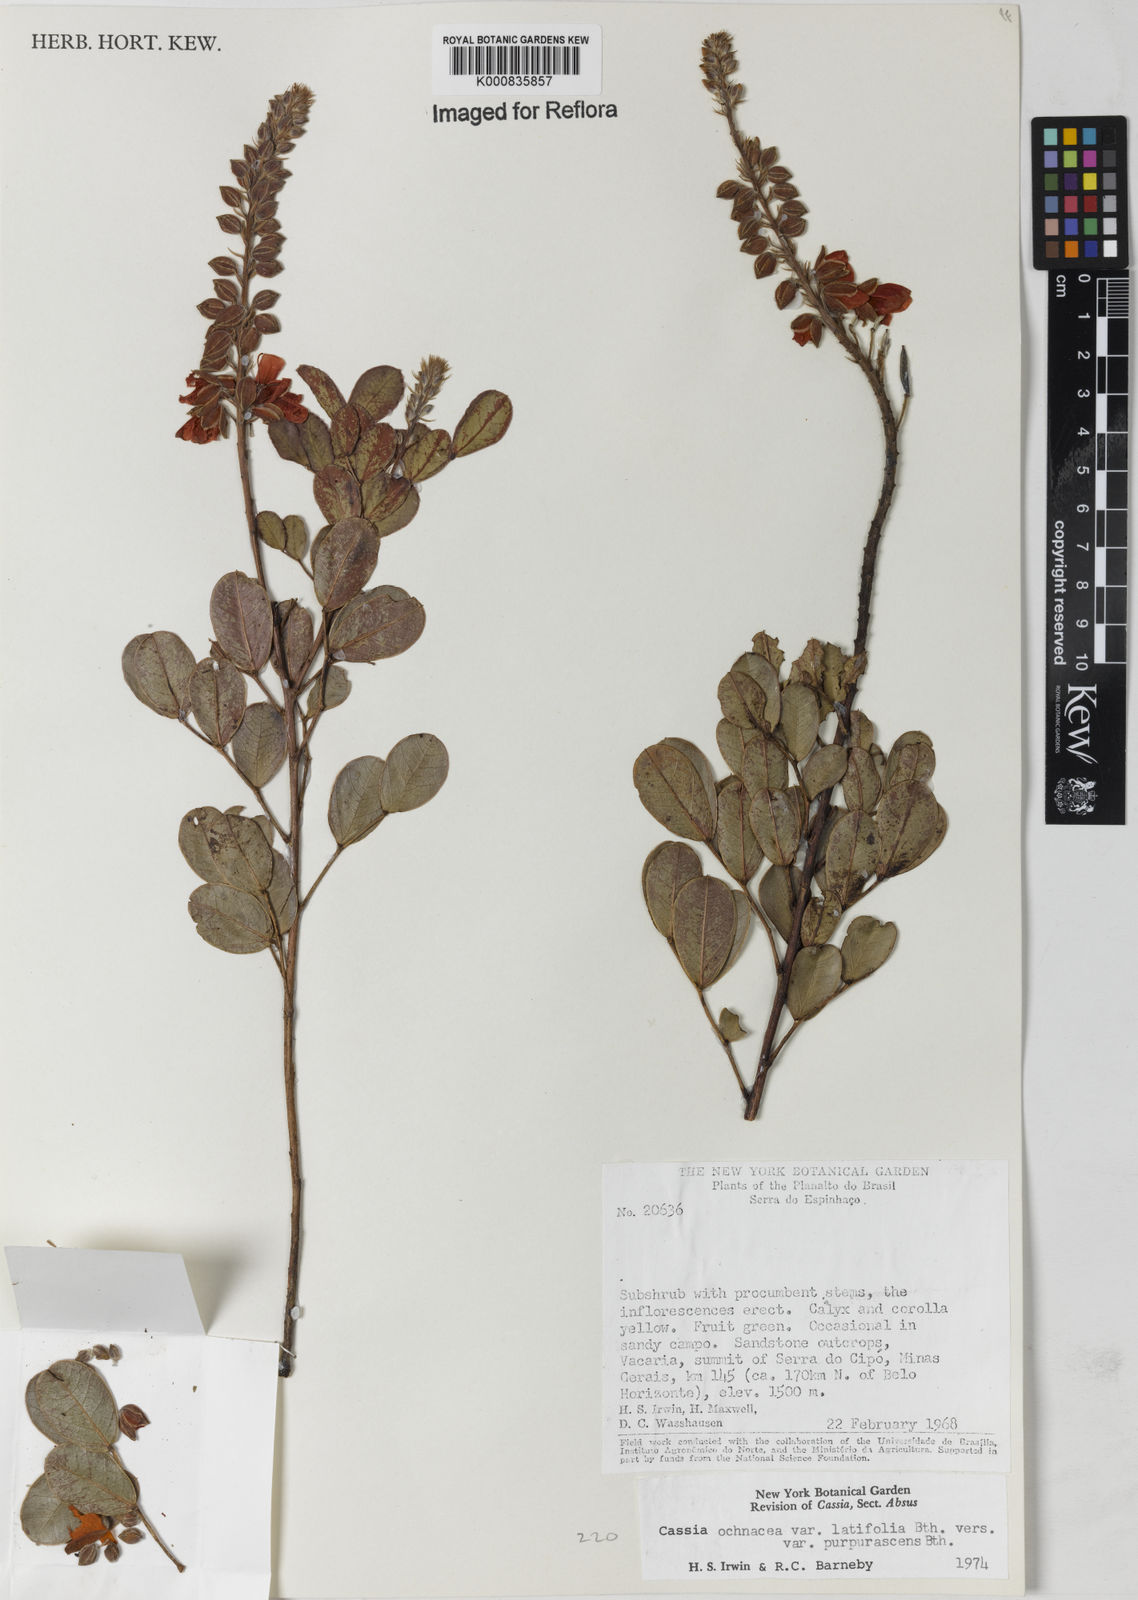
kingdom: Plantae
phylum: Tracheophyta
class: Magnoliopsida
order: Fabales
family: Fabaceae
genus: Chamaecrista
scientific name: Chamaecrista ochnacea
